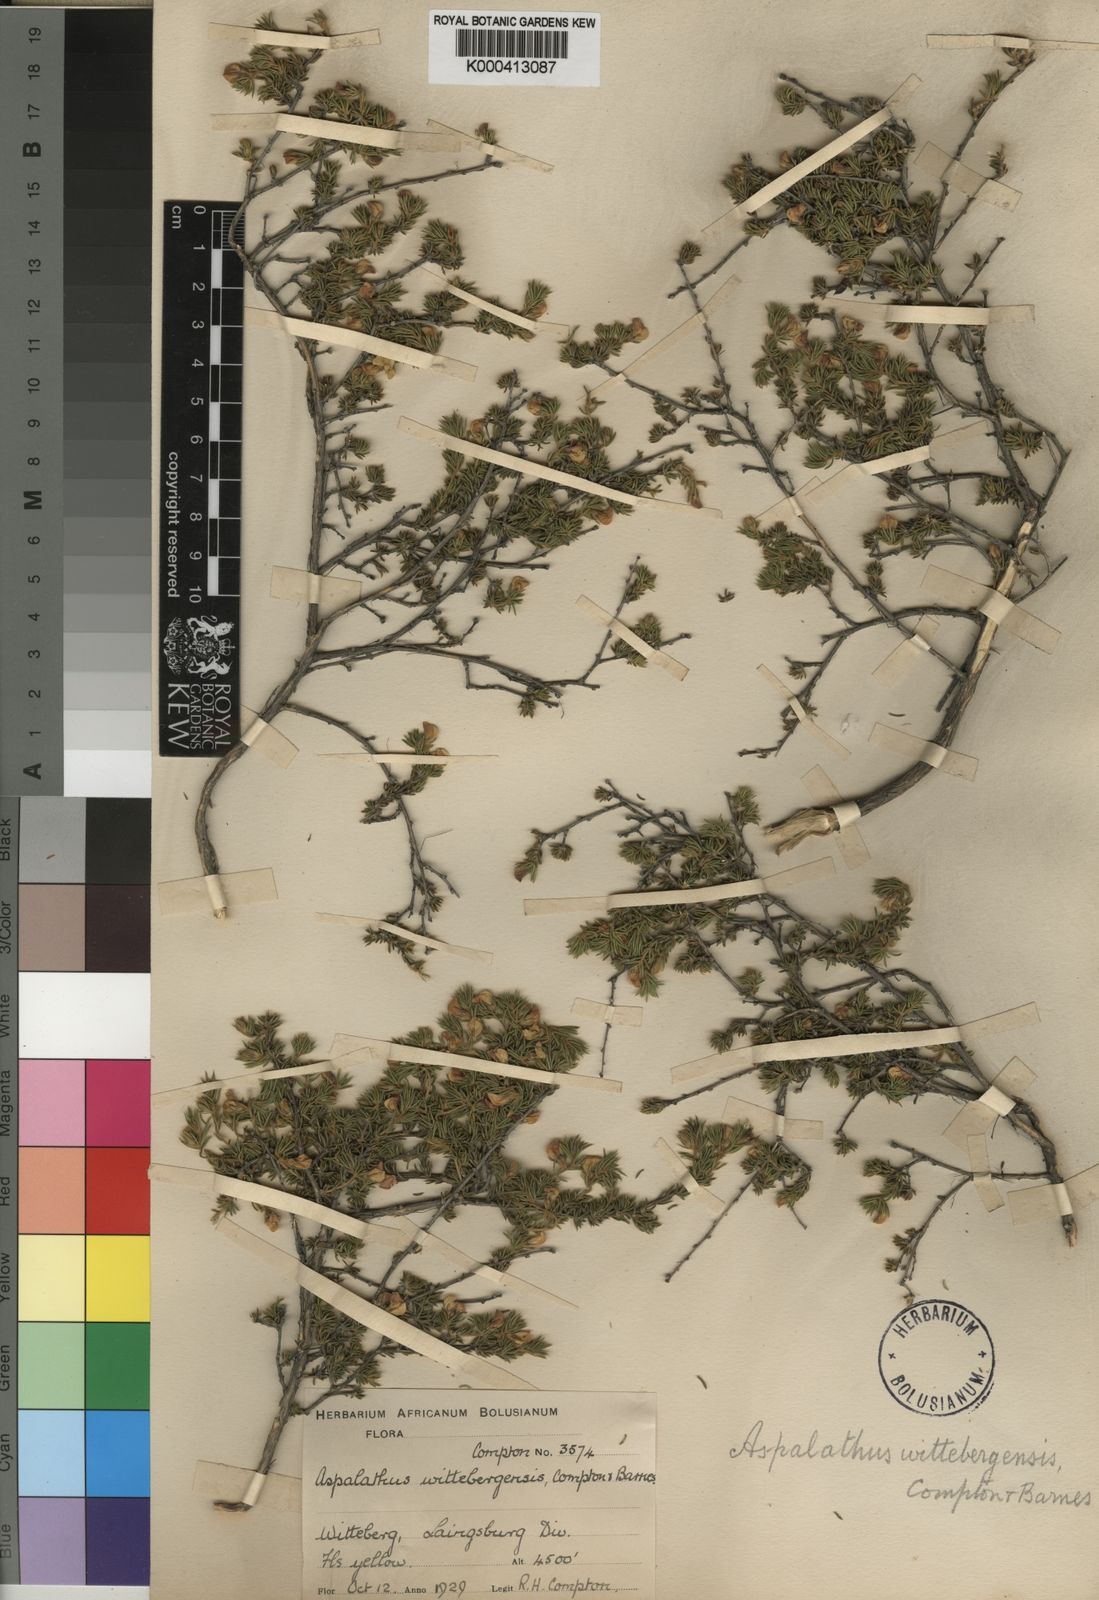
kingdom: Plantae
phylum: Tracheophyta
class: Magnoliopsida
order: Fabales
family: Fabaceae
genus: Aspalathus
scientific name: Aspalathus wittebergensis
